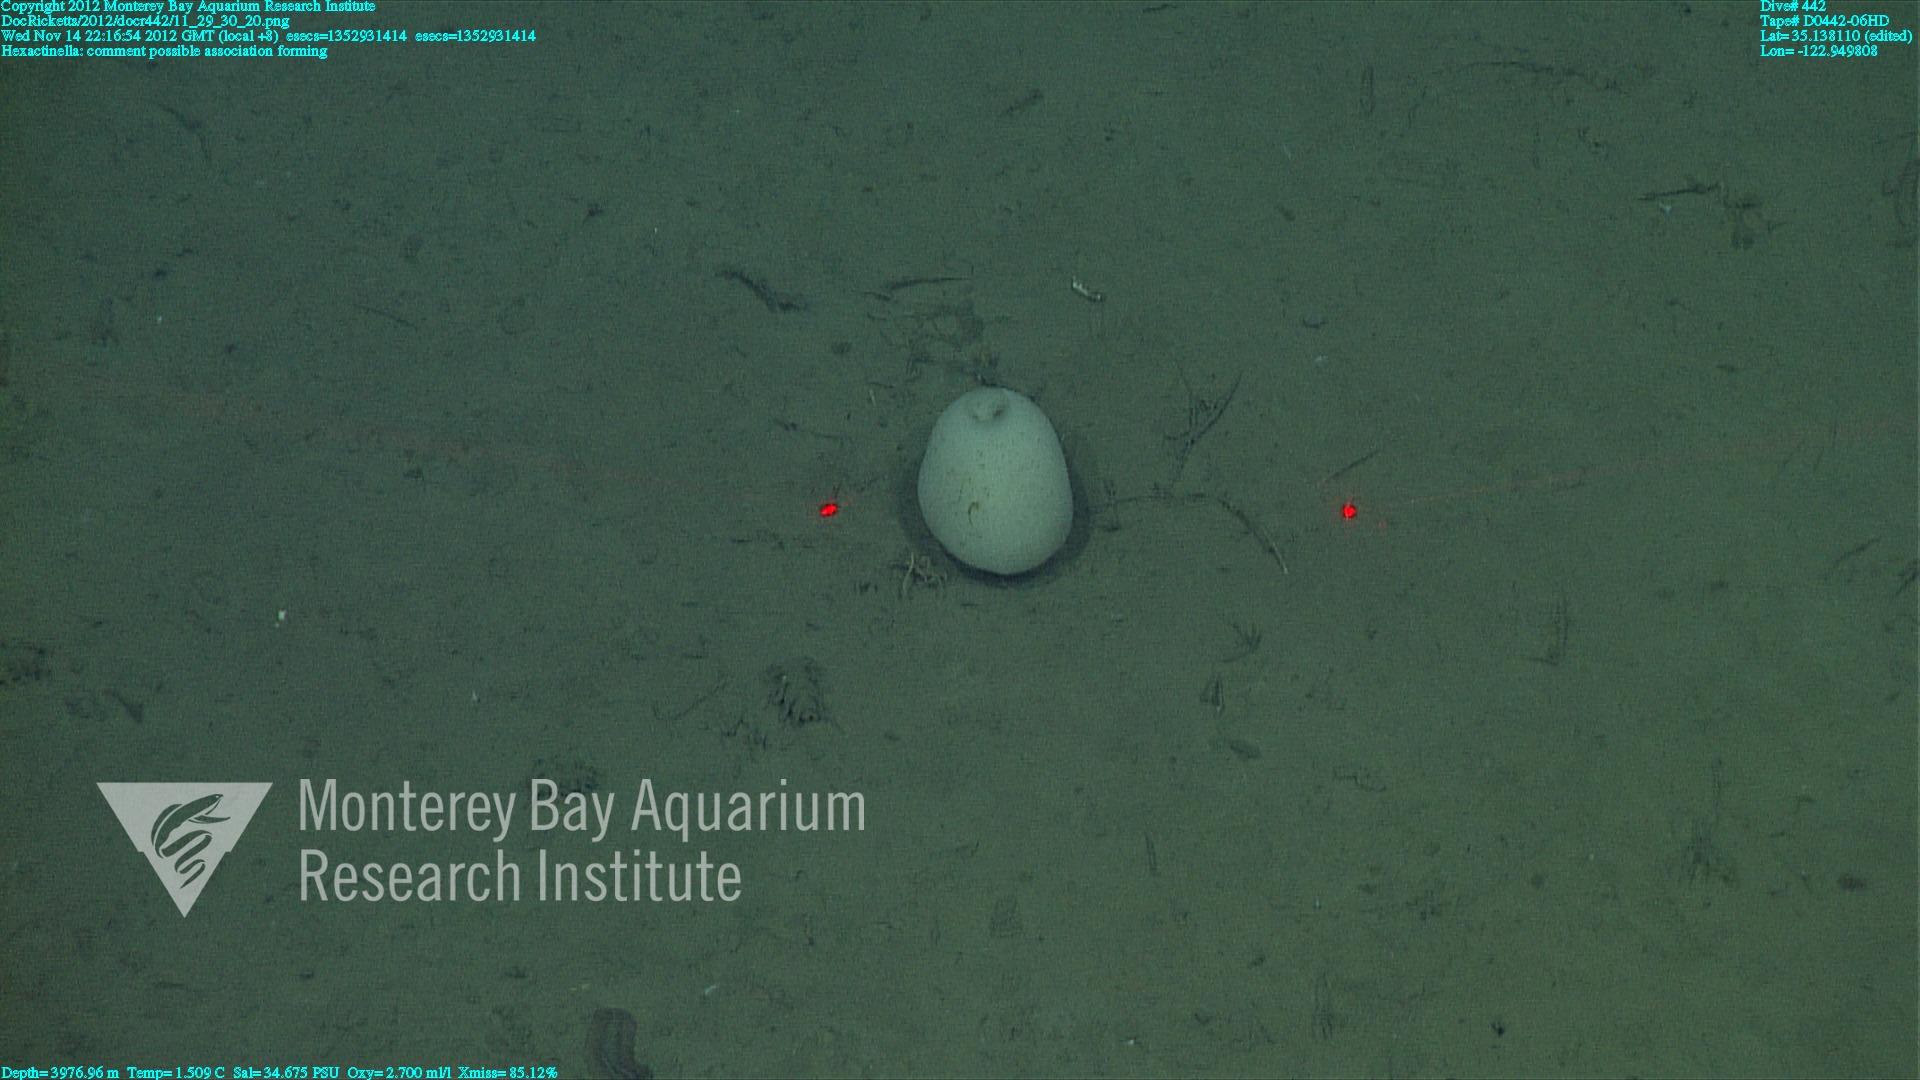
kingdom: Animalia
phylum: Porifera
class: Hexactinellida
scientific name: Hexactinellida
